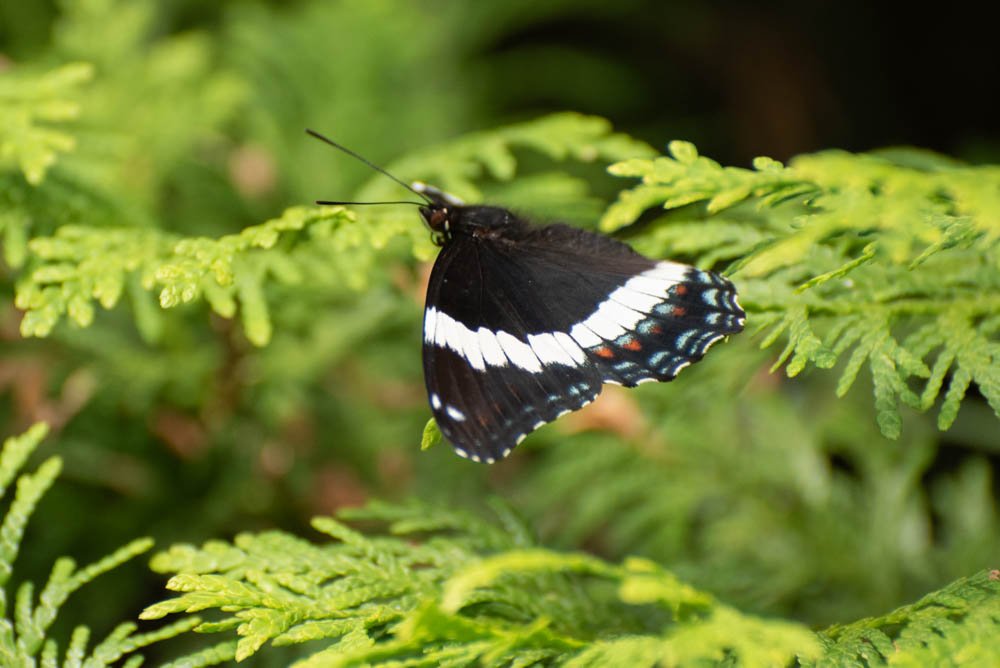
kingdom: Animalia
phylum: Arthropoda
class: Insecta
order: Lepidoptera
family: Nymphalidae
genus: Limenitis
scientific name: Limenitis arthemis
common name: Red-spotted Admiral
